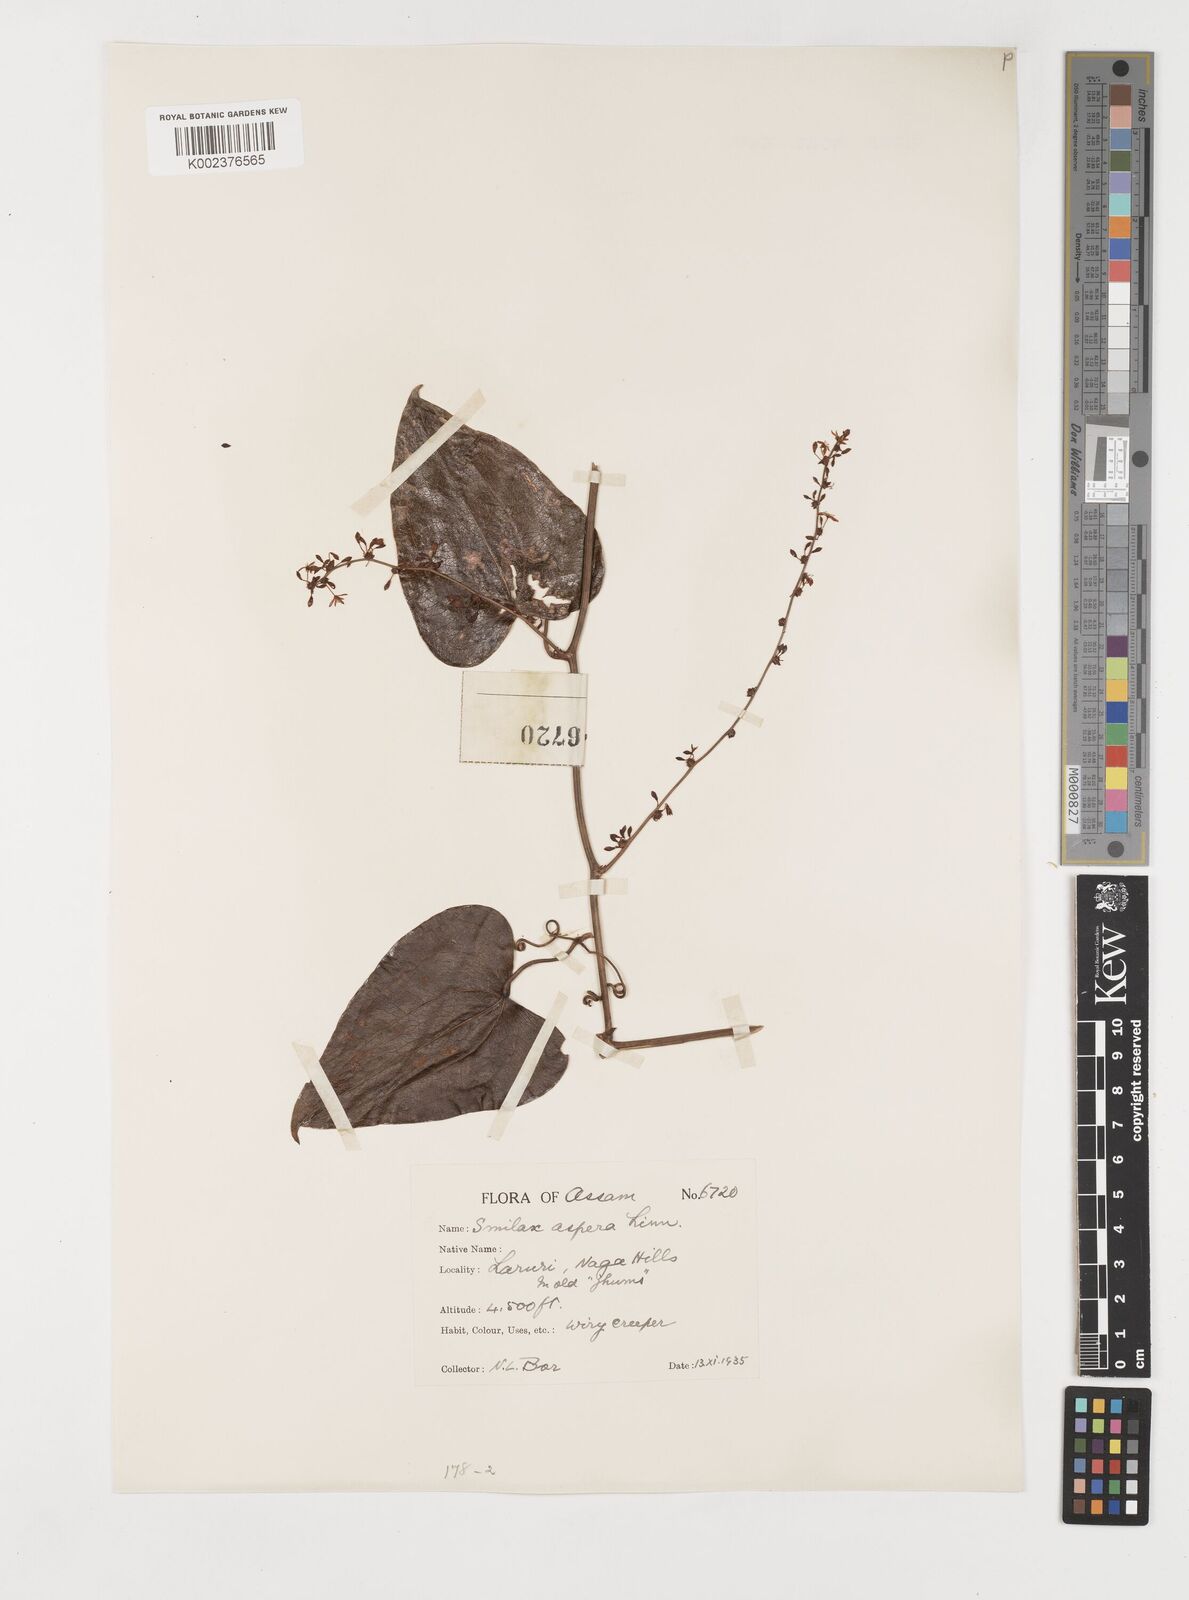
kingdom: Plantae
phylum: Tracheophyta
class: Liliopsida
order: Liliales
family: Smilacaceae
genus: Smilax
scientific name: Smilax aspera
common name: Common smilax
